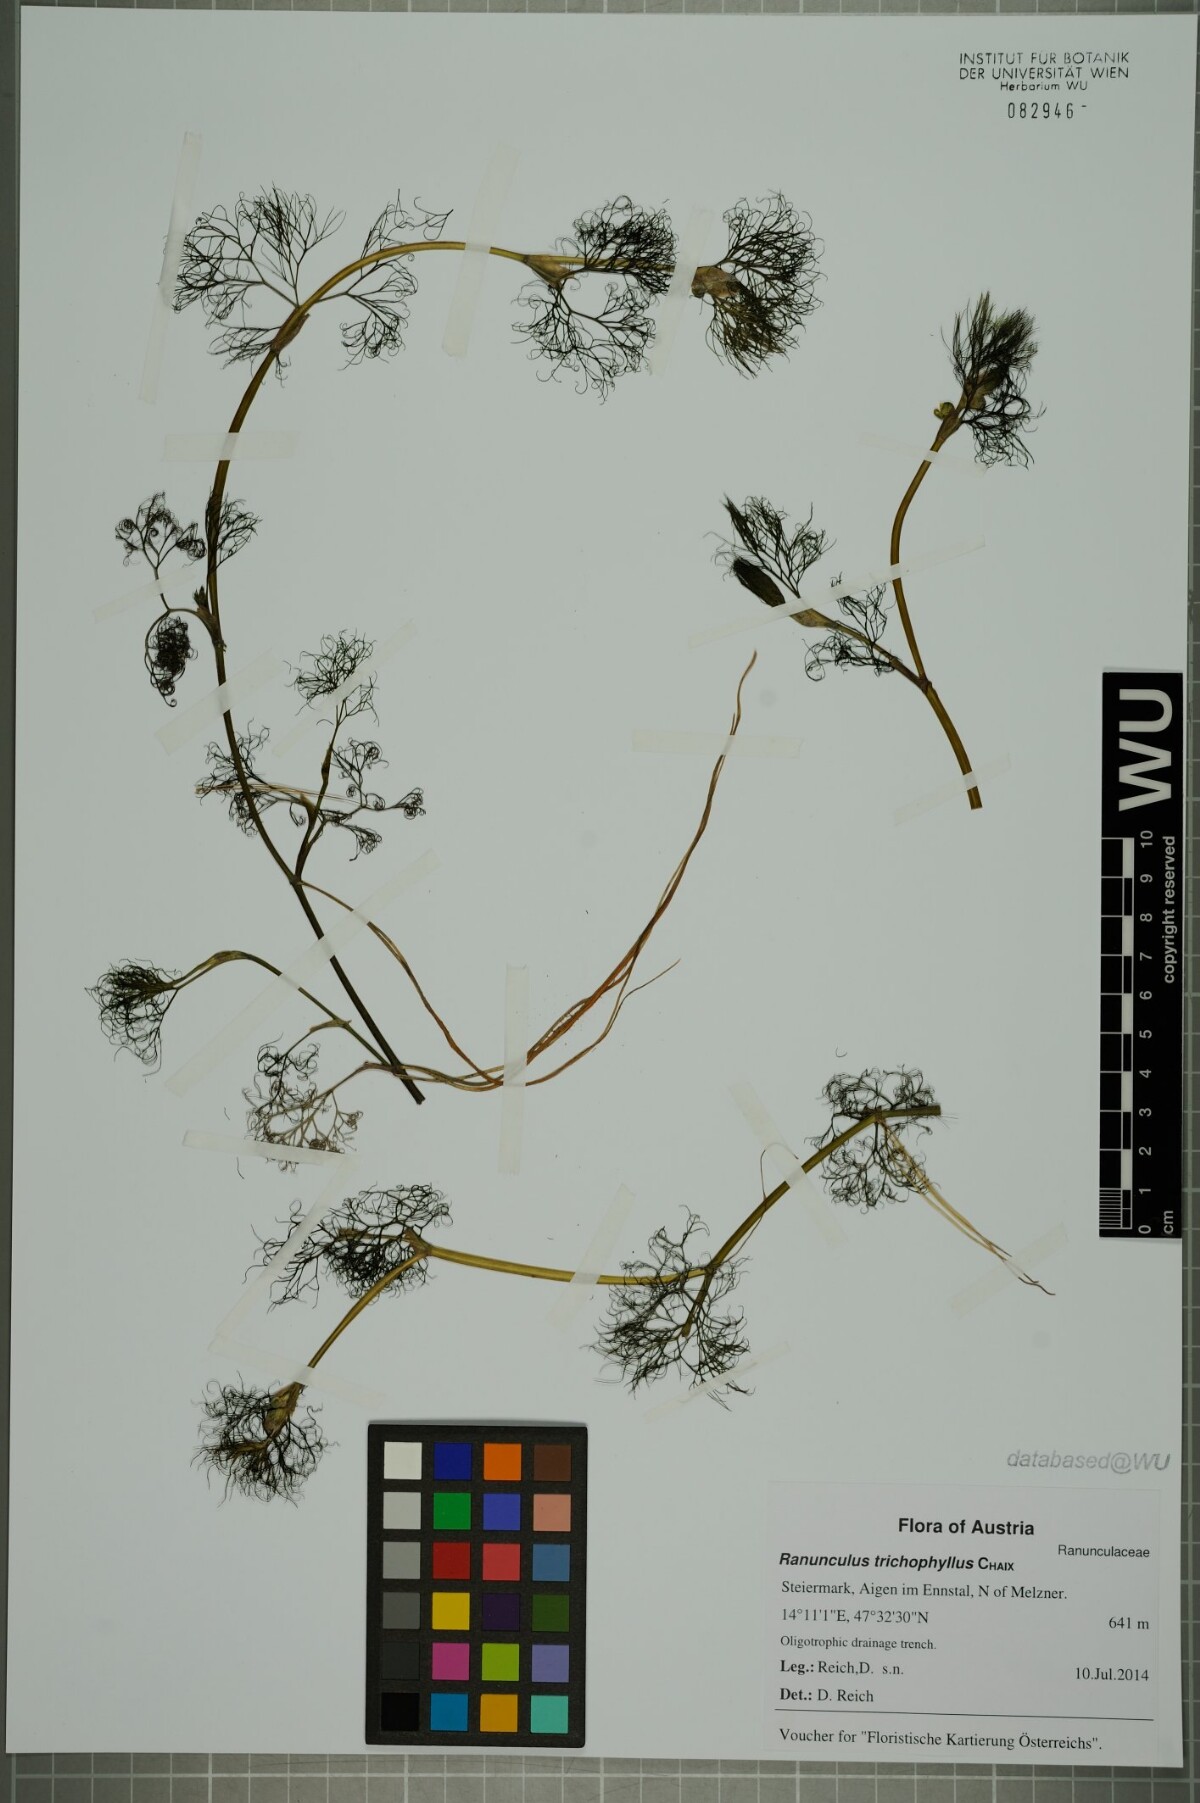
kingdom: Plantae
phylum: Tracheophyta
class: Magnoliopsida
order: Ranunculales
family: Ranunculaceae
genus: Ranunculus
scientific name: Ranunculus trichophyllus
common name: Thread-leaved water-crowfoot
